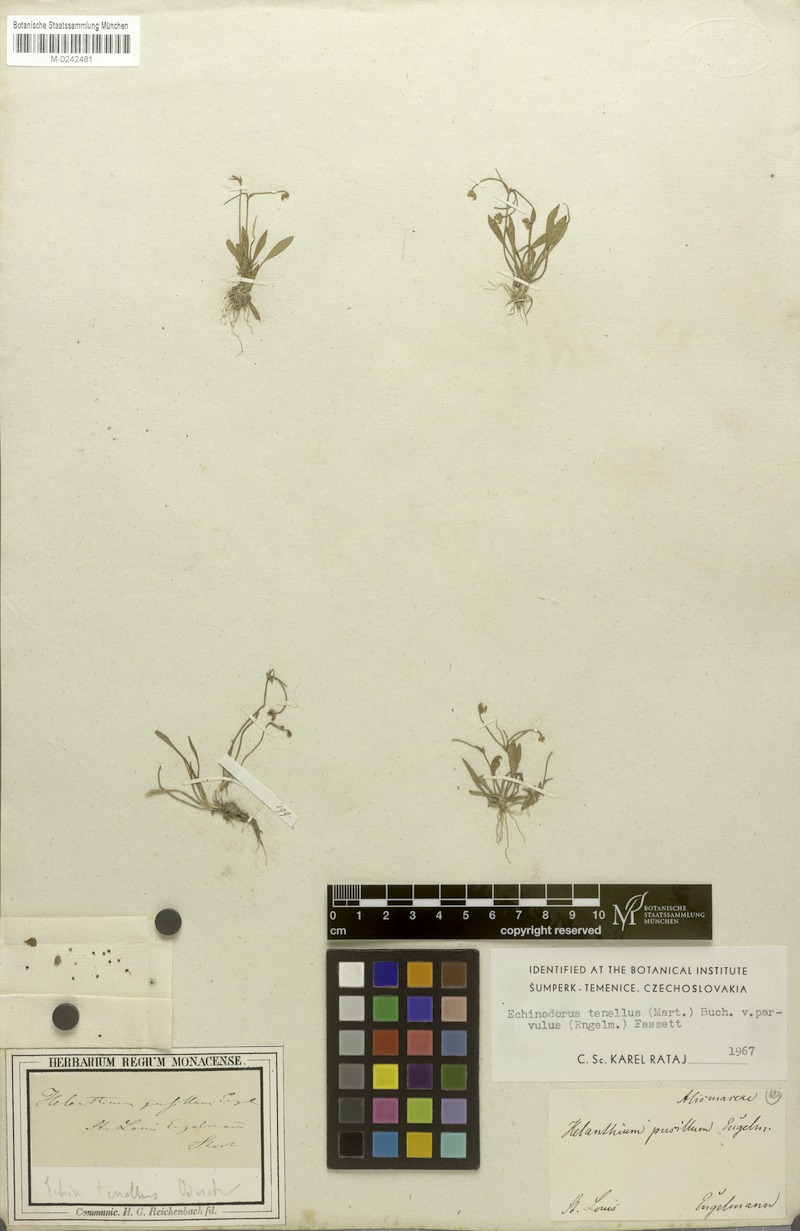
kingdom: Plantae
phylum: Tracheophyta
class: Liliopsida
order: Alismatales
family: Alismataceae
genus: Helanthium
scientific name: Helanthium tenellum
